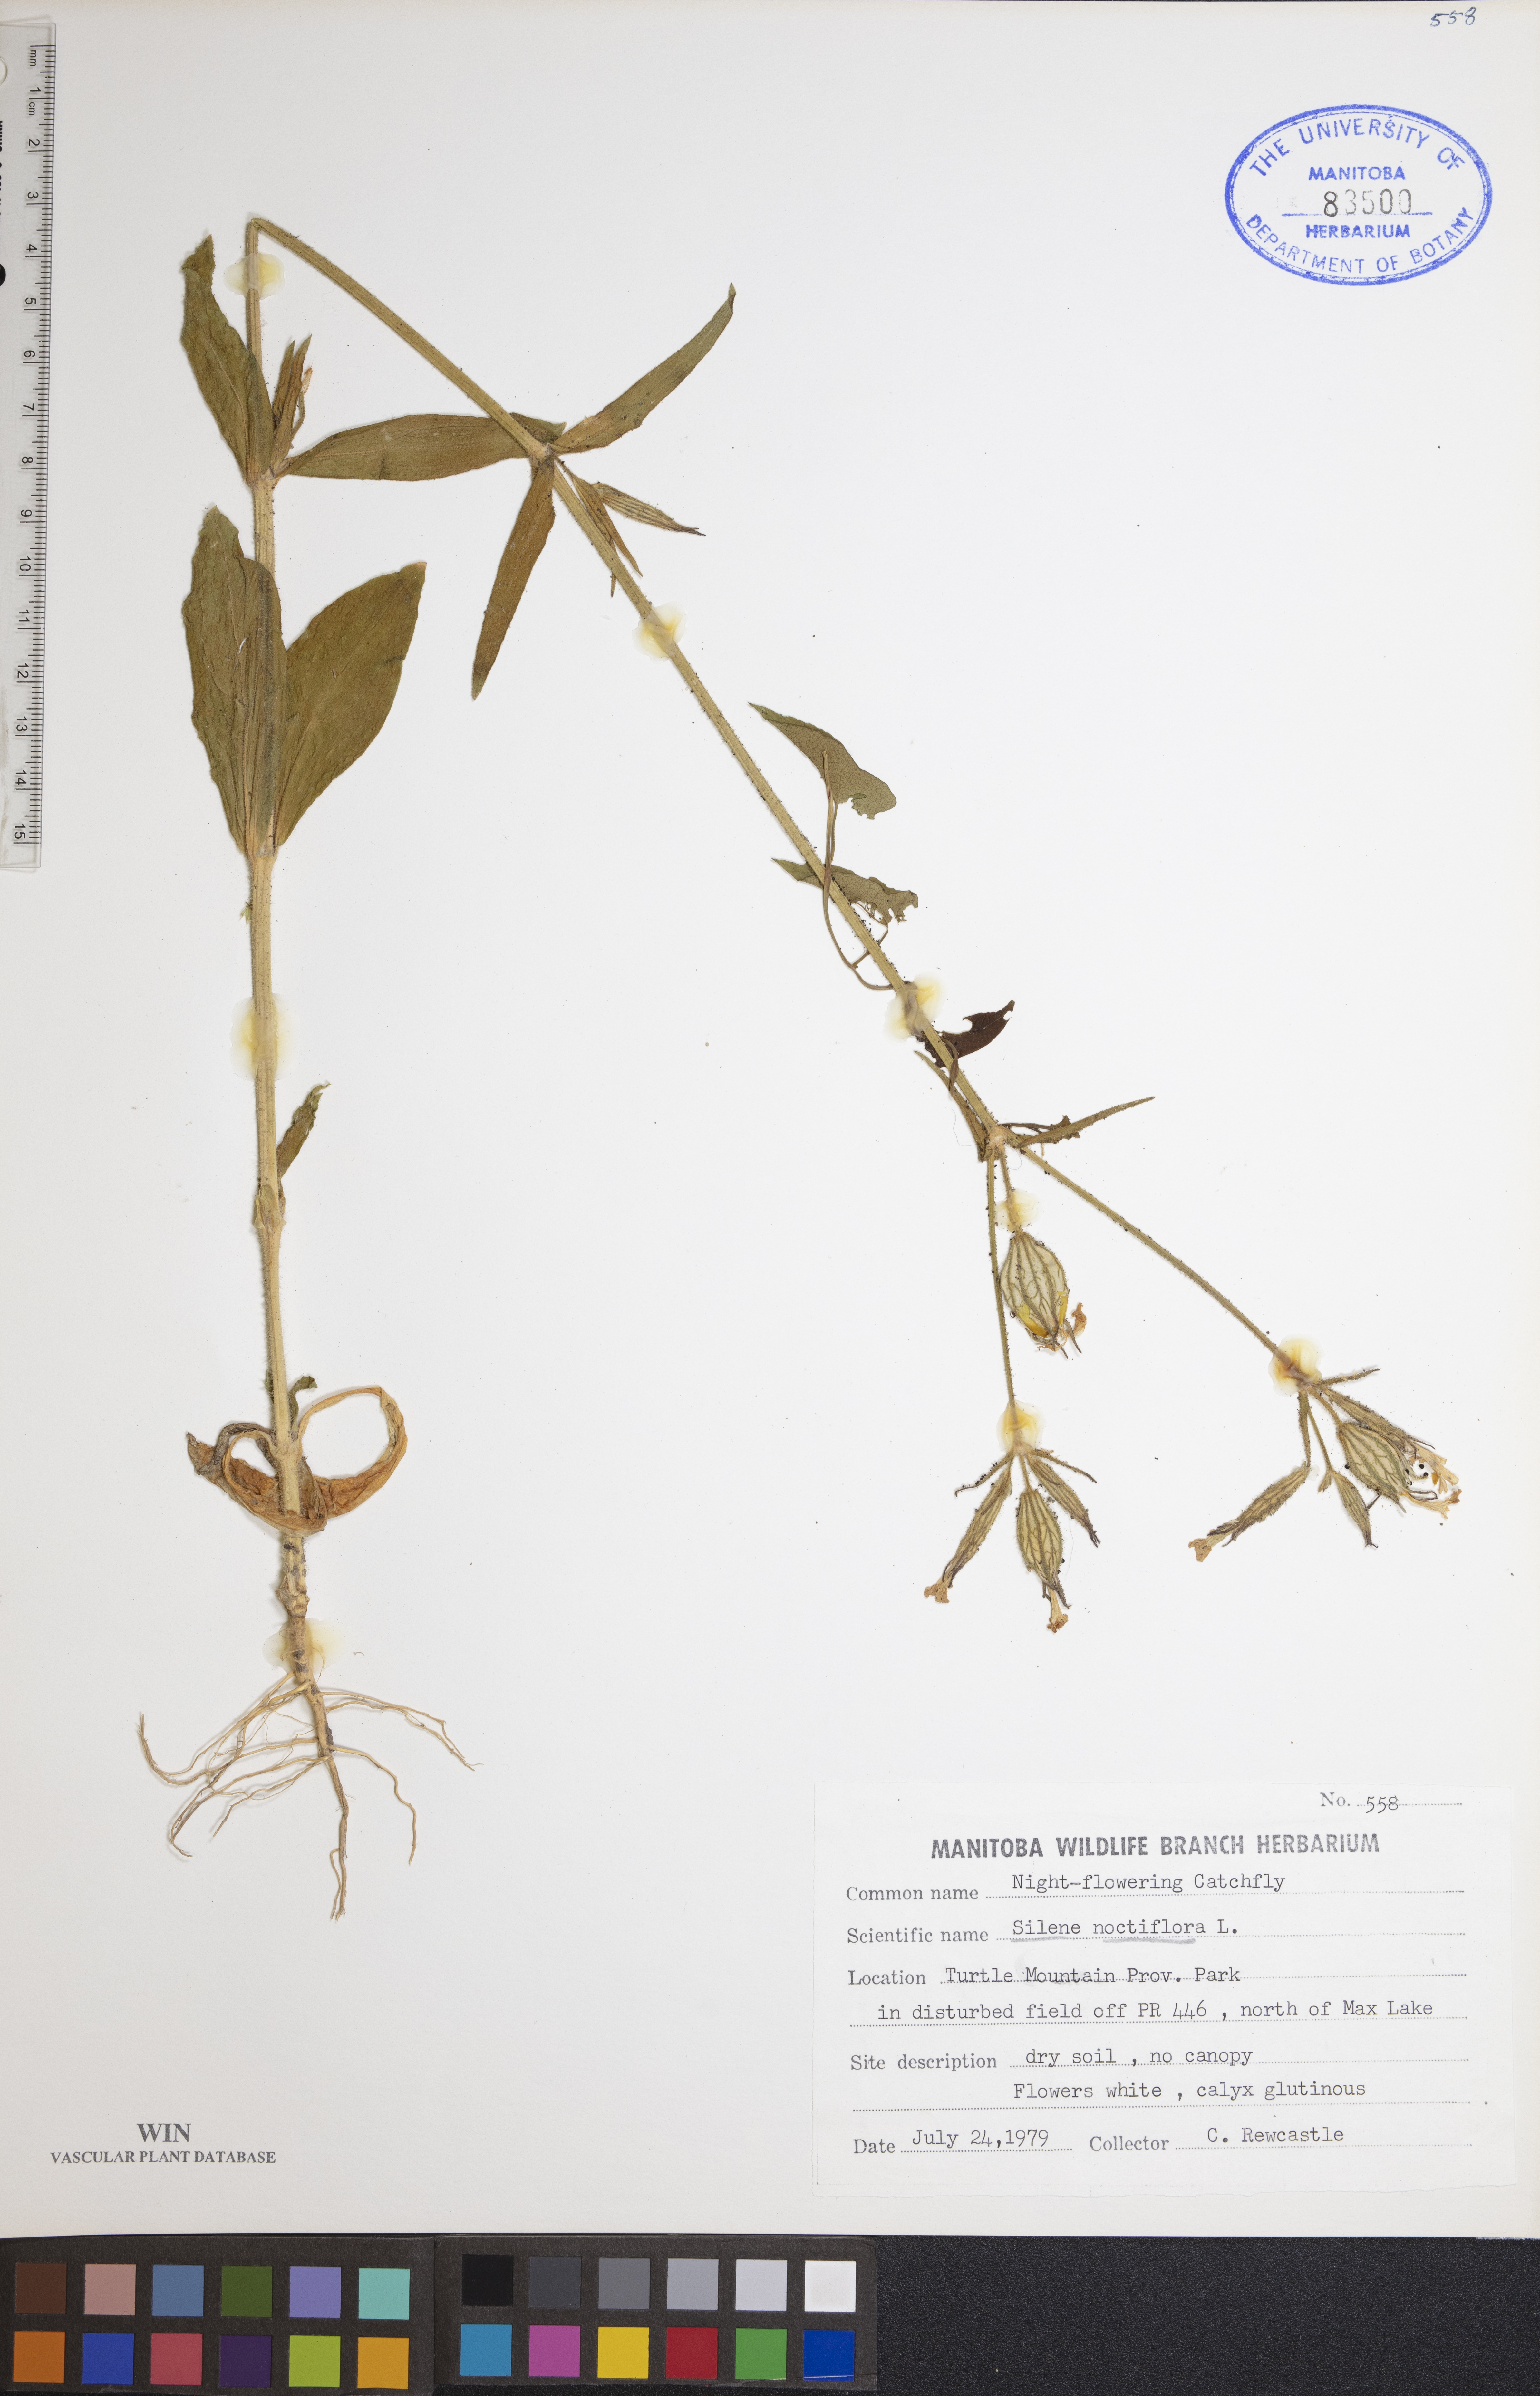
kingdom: Plantae
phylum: Tracheophyta
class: Magnoliopsida
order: Caryophyllales
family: Caryophyllaceae
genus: Silene
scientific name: Silene noctiflora
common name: Night-flowering catchfly
